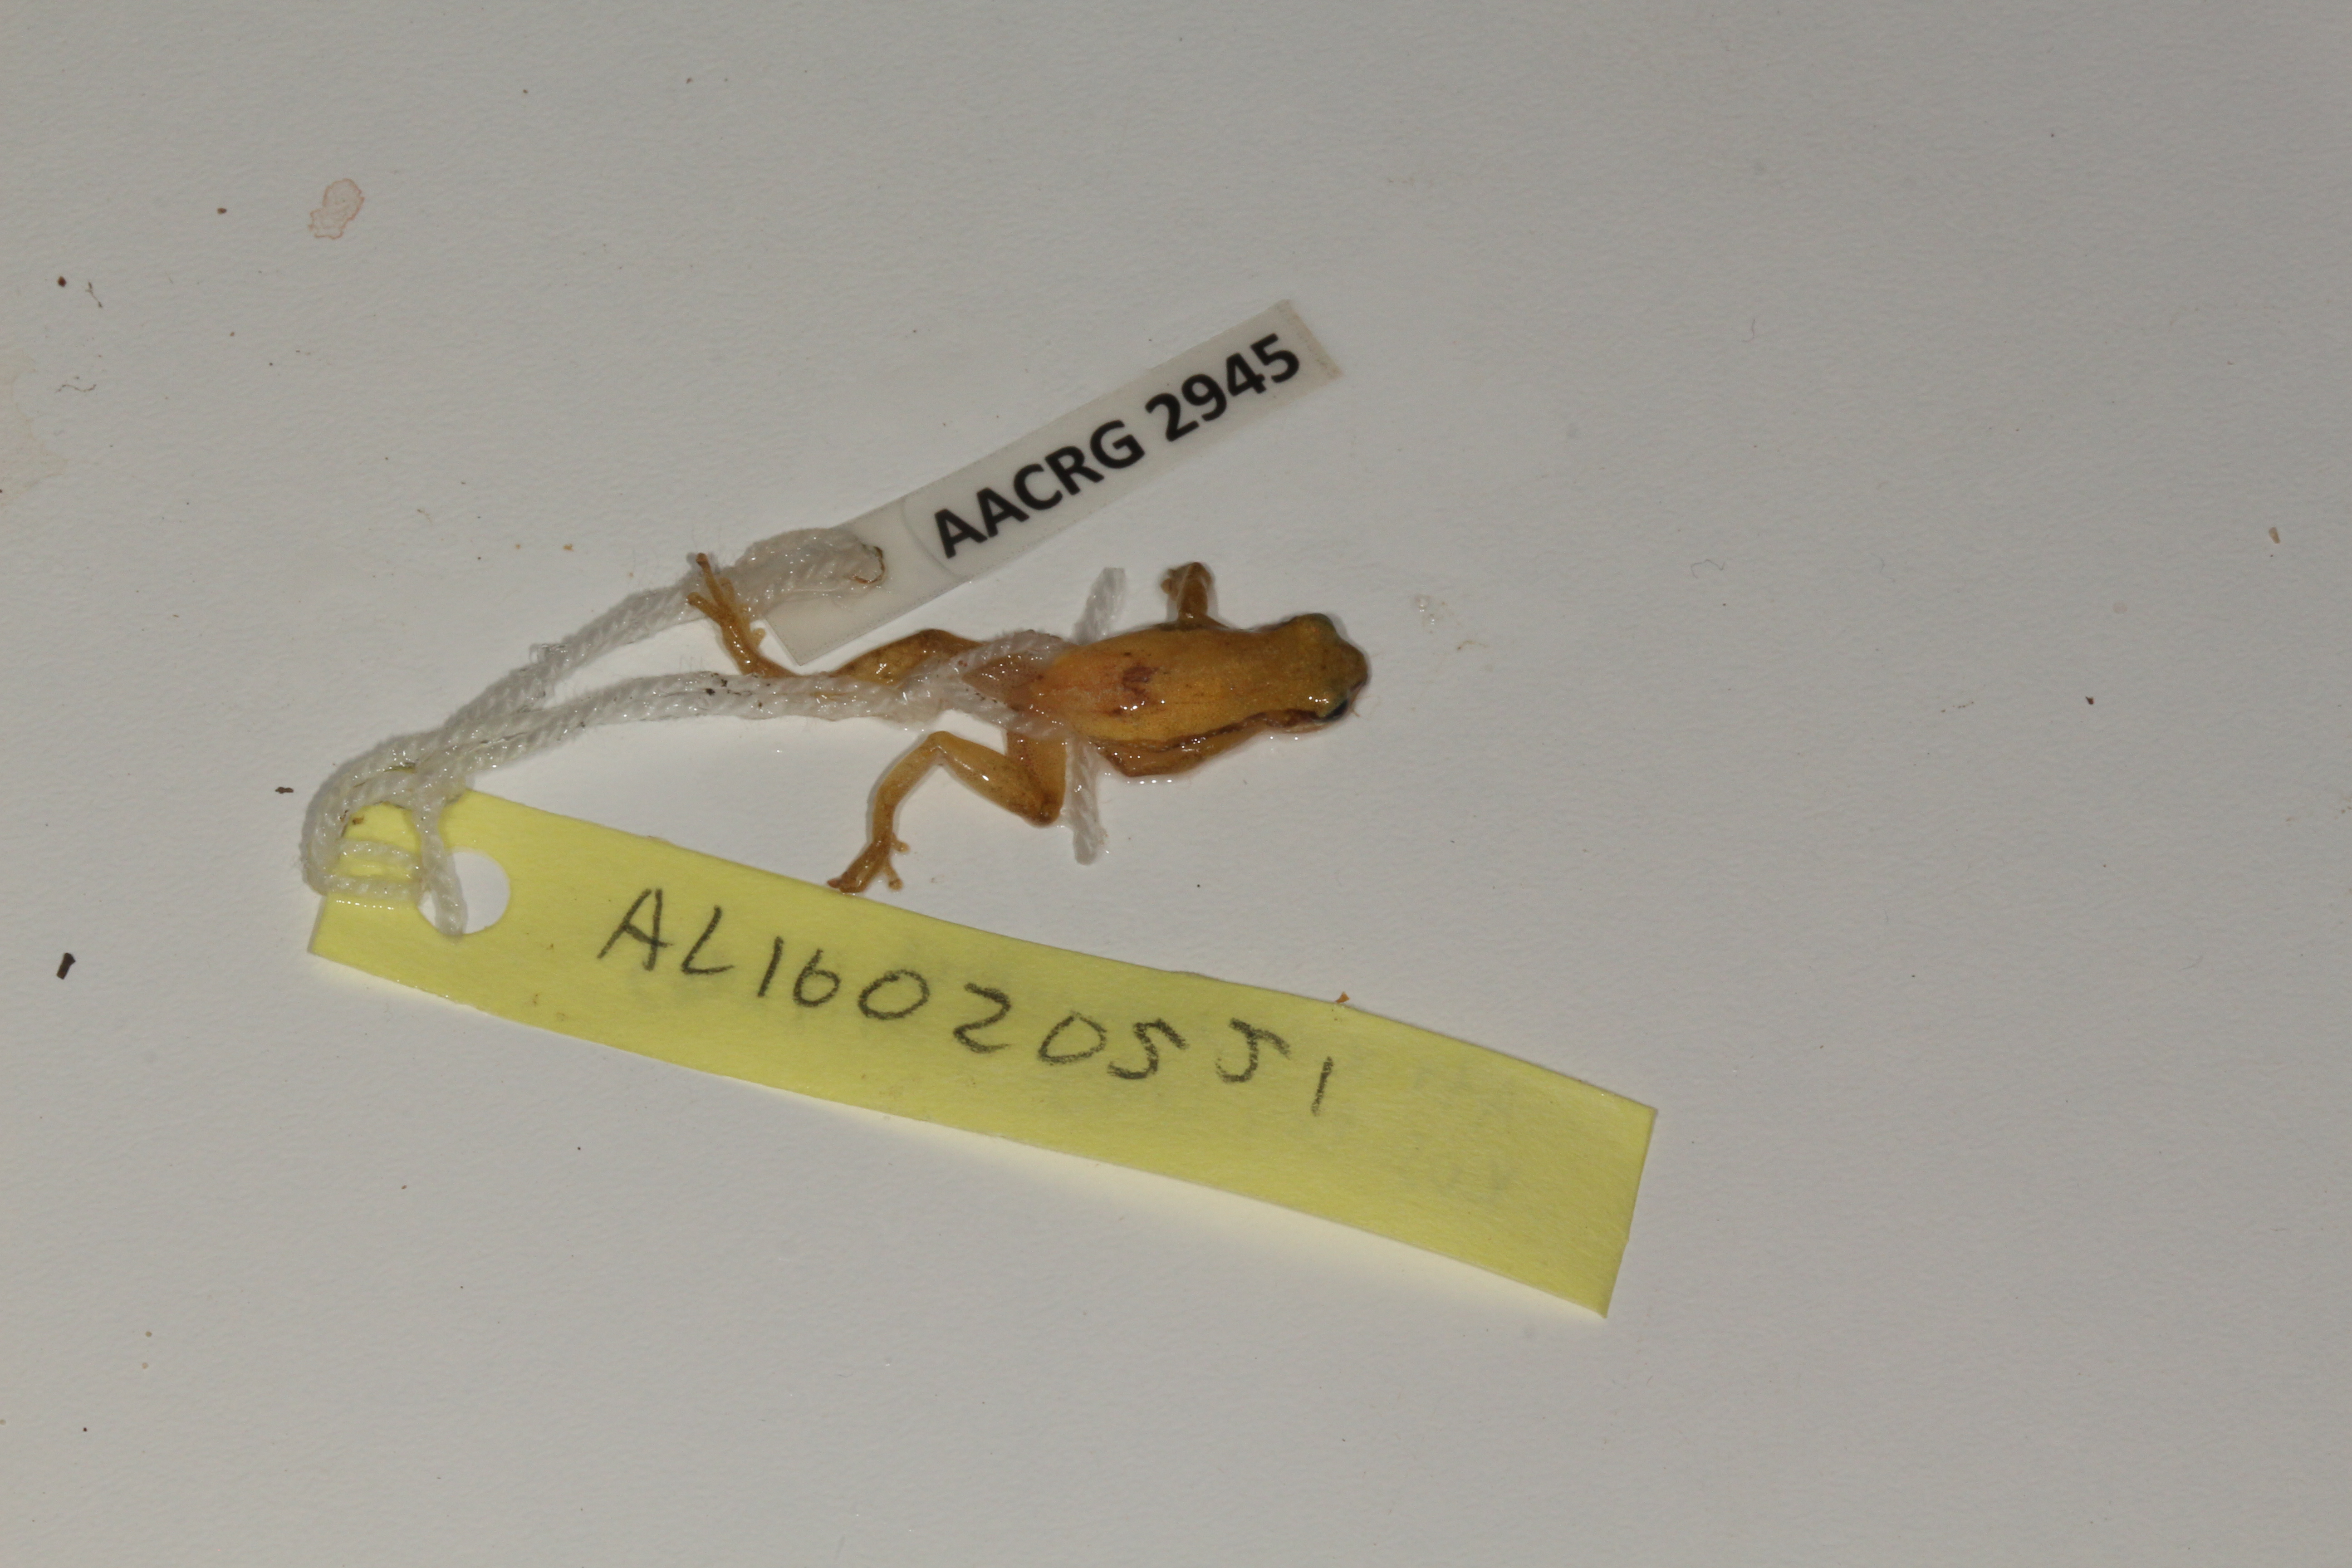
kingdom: Animalia
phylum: Chordata
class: Amphibia
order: Anura
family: Hyperoliidae
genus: Afrixalus
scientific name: Afrixalus aureus
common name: Golden banana frog
